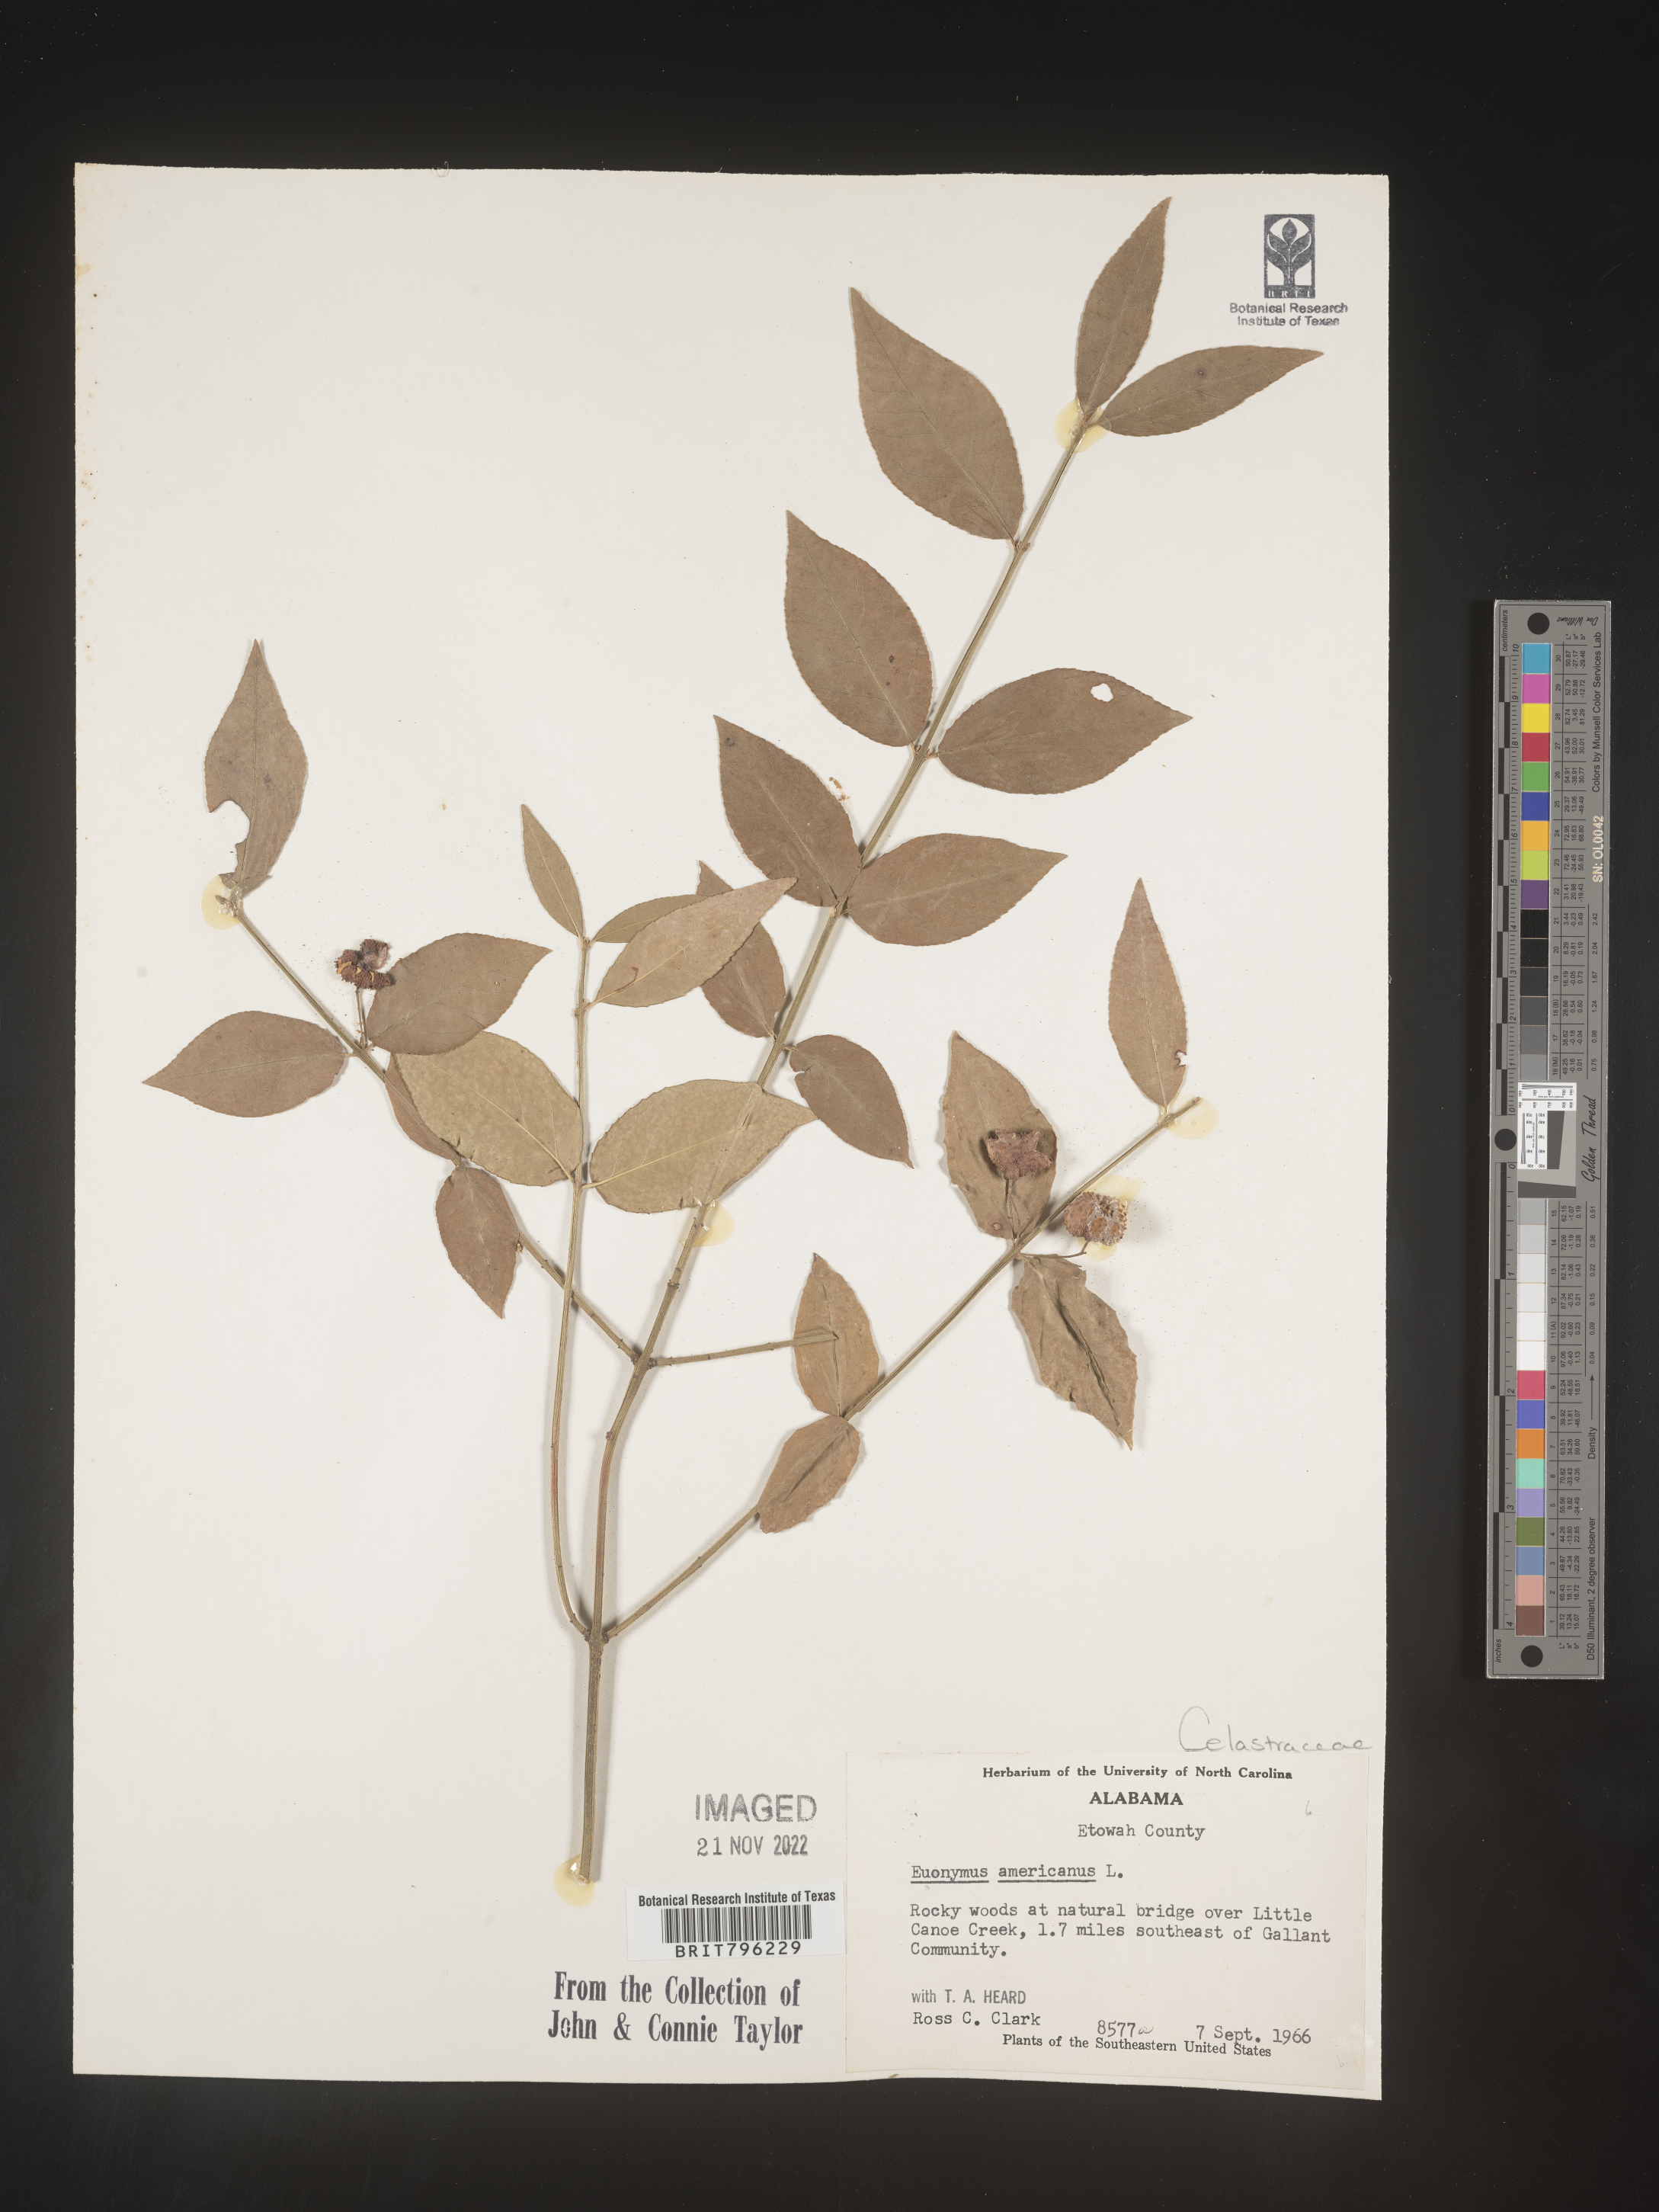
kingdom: Plantae
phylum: Tracheophyta
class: Magnoliopsida
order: Celastrales
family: Celastraceae
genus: Euonymus
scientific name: Euonymus americanus
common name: Bursting-heart
